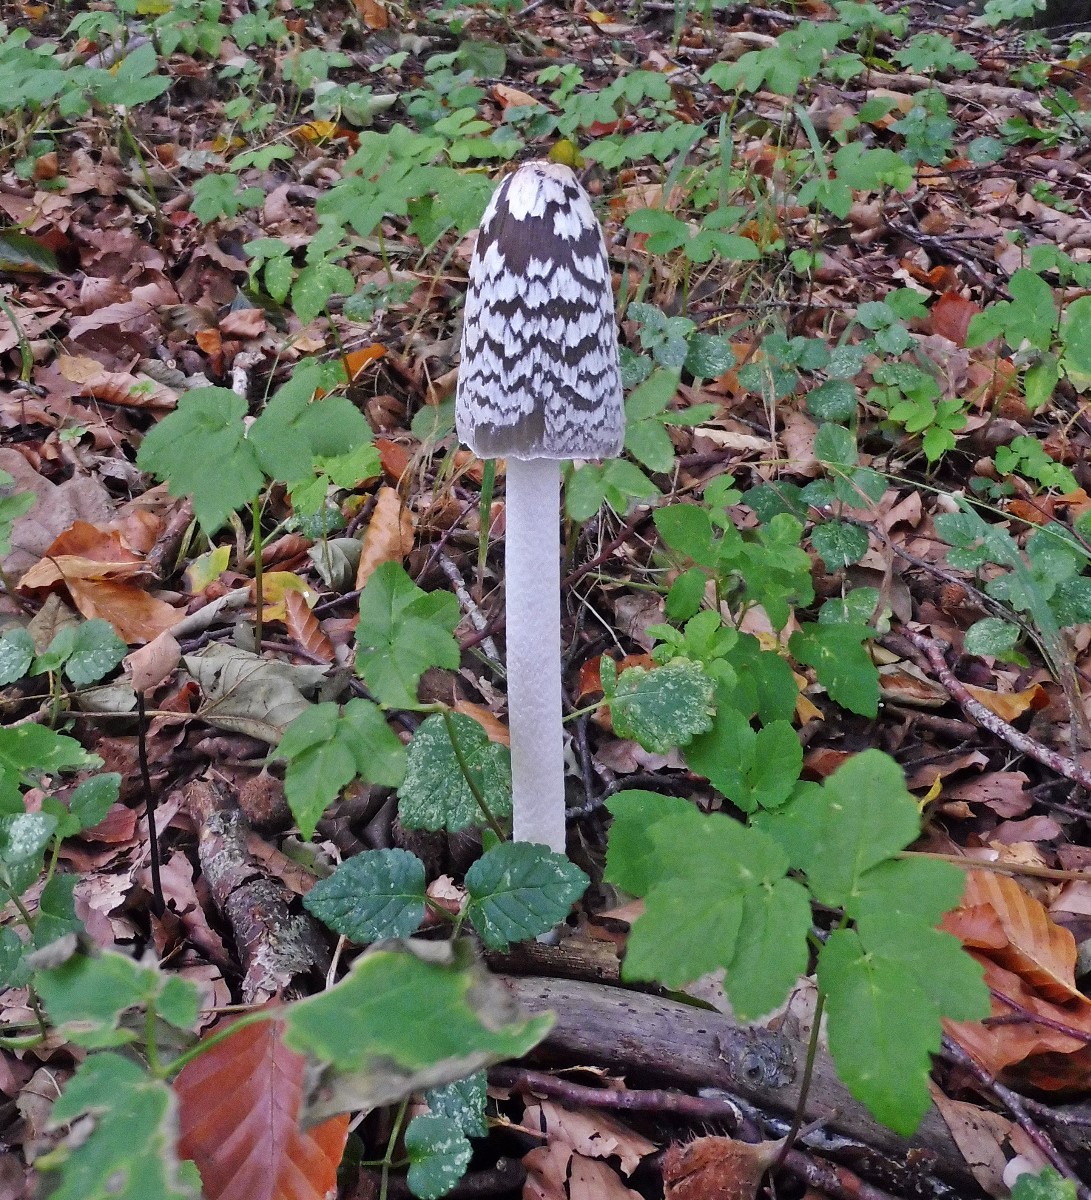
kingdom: Fungi
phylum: Basidiomycota
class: Agaricomycetes
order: Agaricales
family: Psathyrellaceae
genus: Coprinopsis
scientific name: Coprinopsis picacea
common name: skade-blækhat
